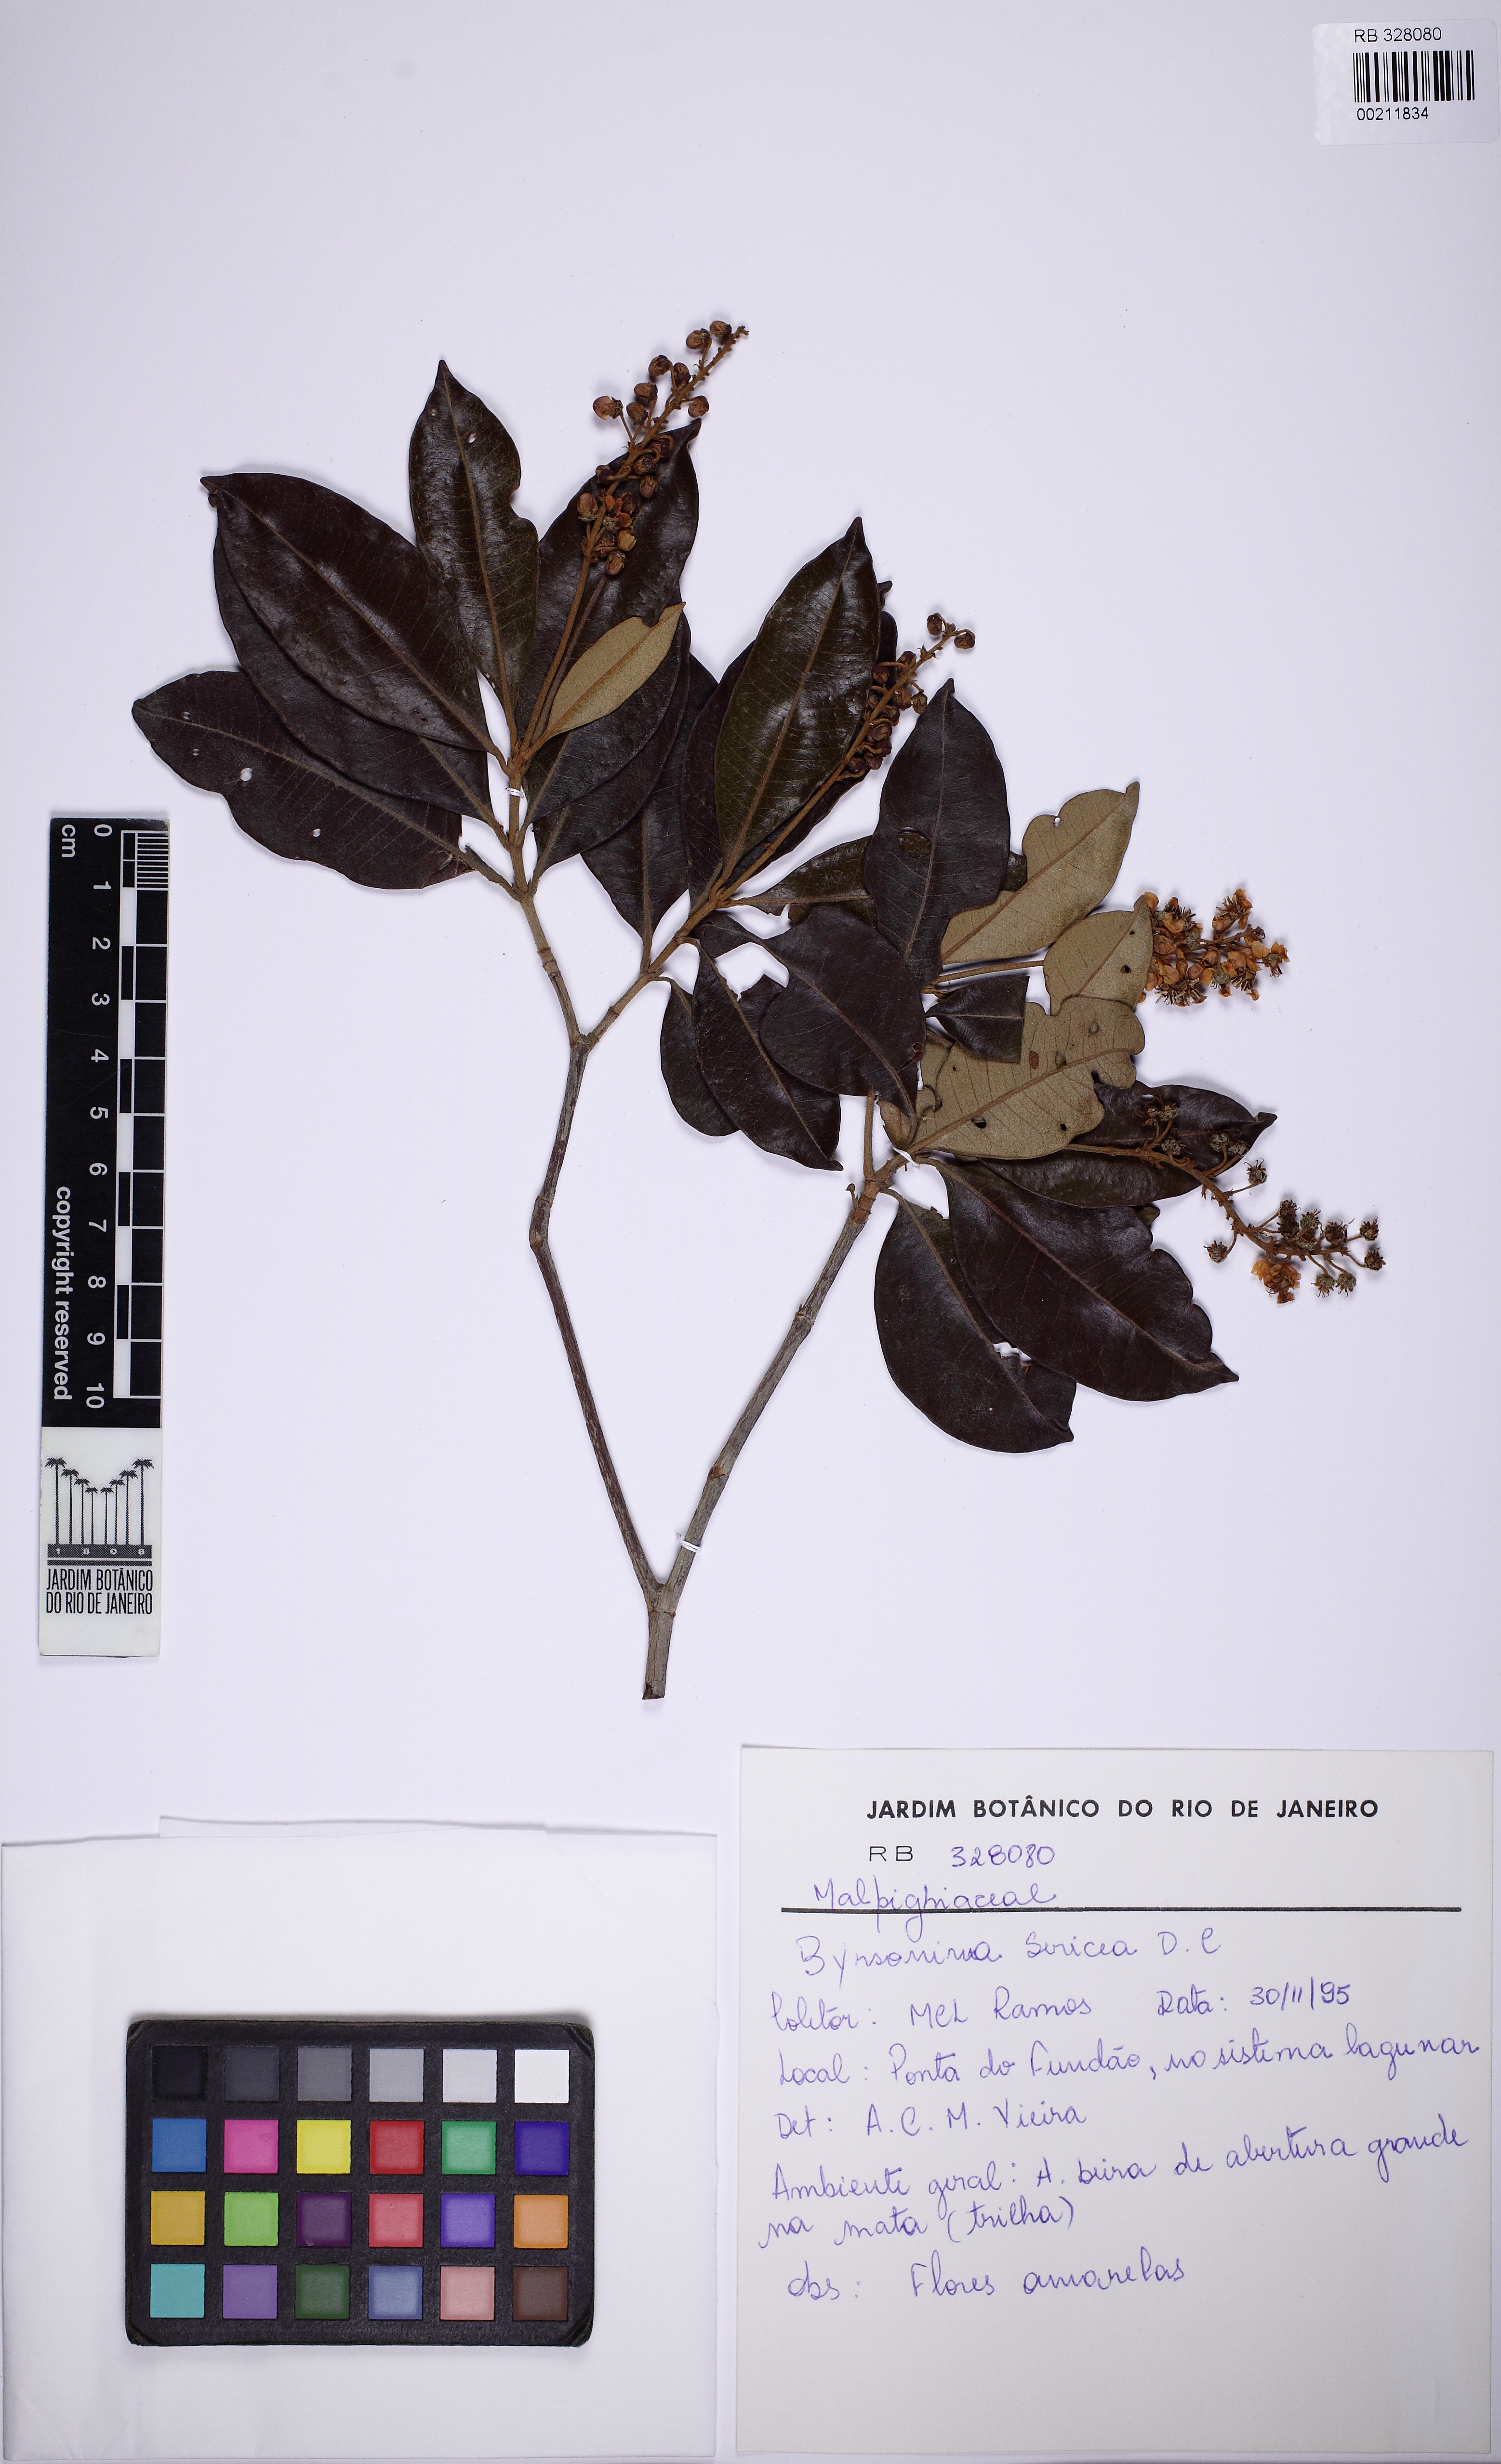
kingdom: Plantae
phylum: Tracheophyta
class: Magnoliopsida
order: Malpighiales
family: Malpighiaceae
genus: Byrsonima
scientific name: Byrsonima sericea
